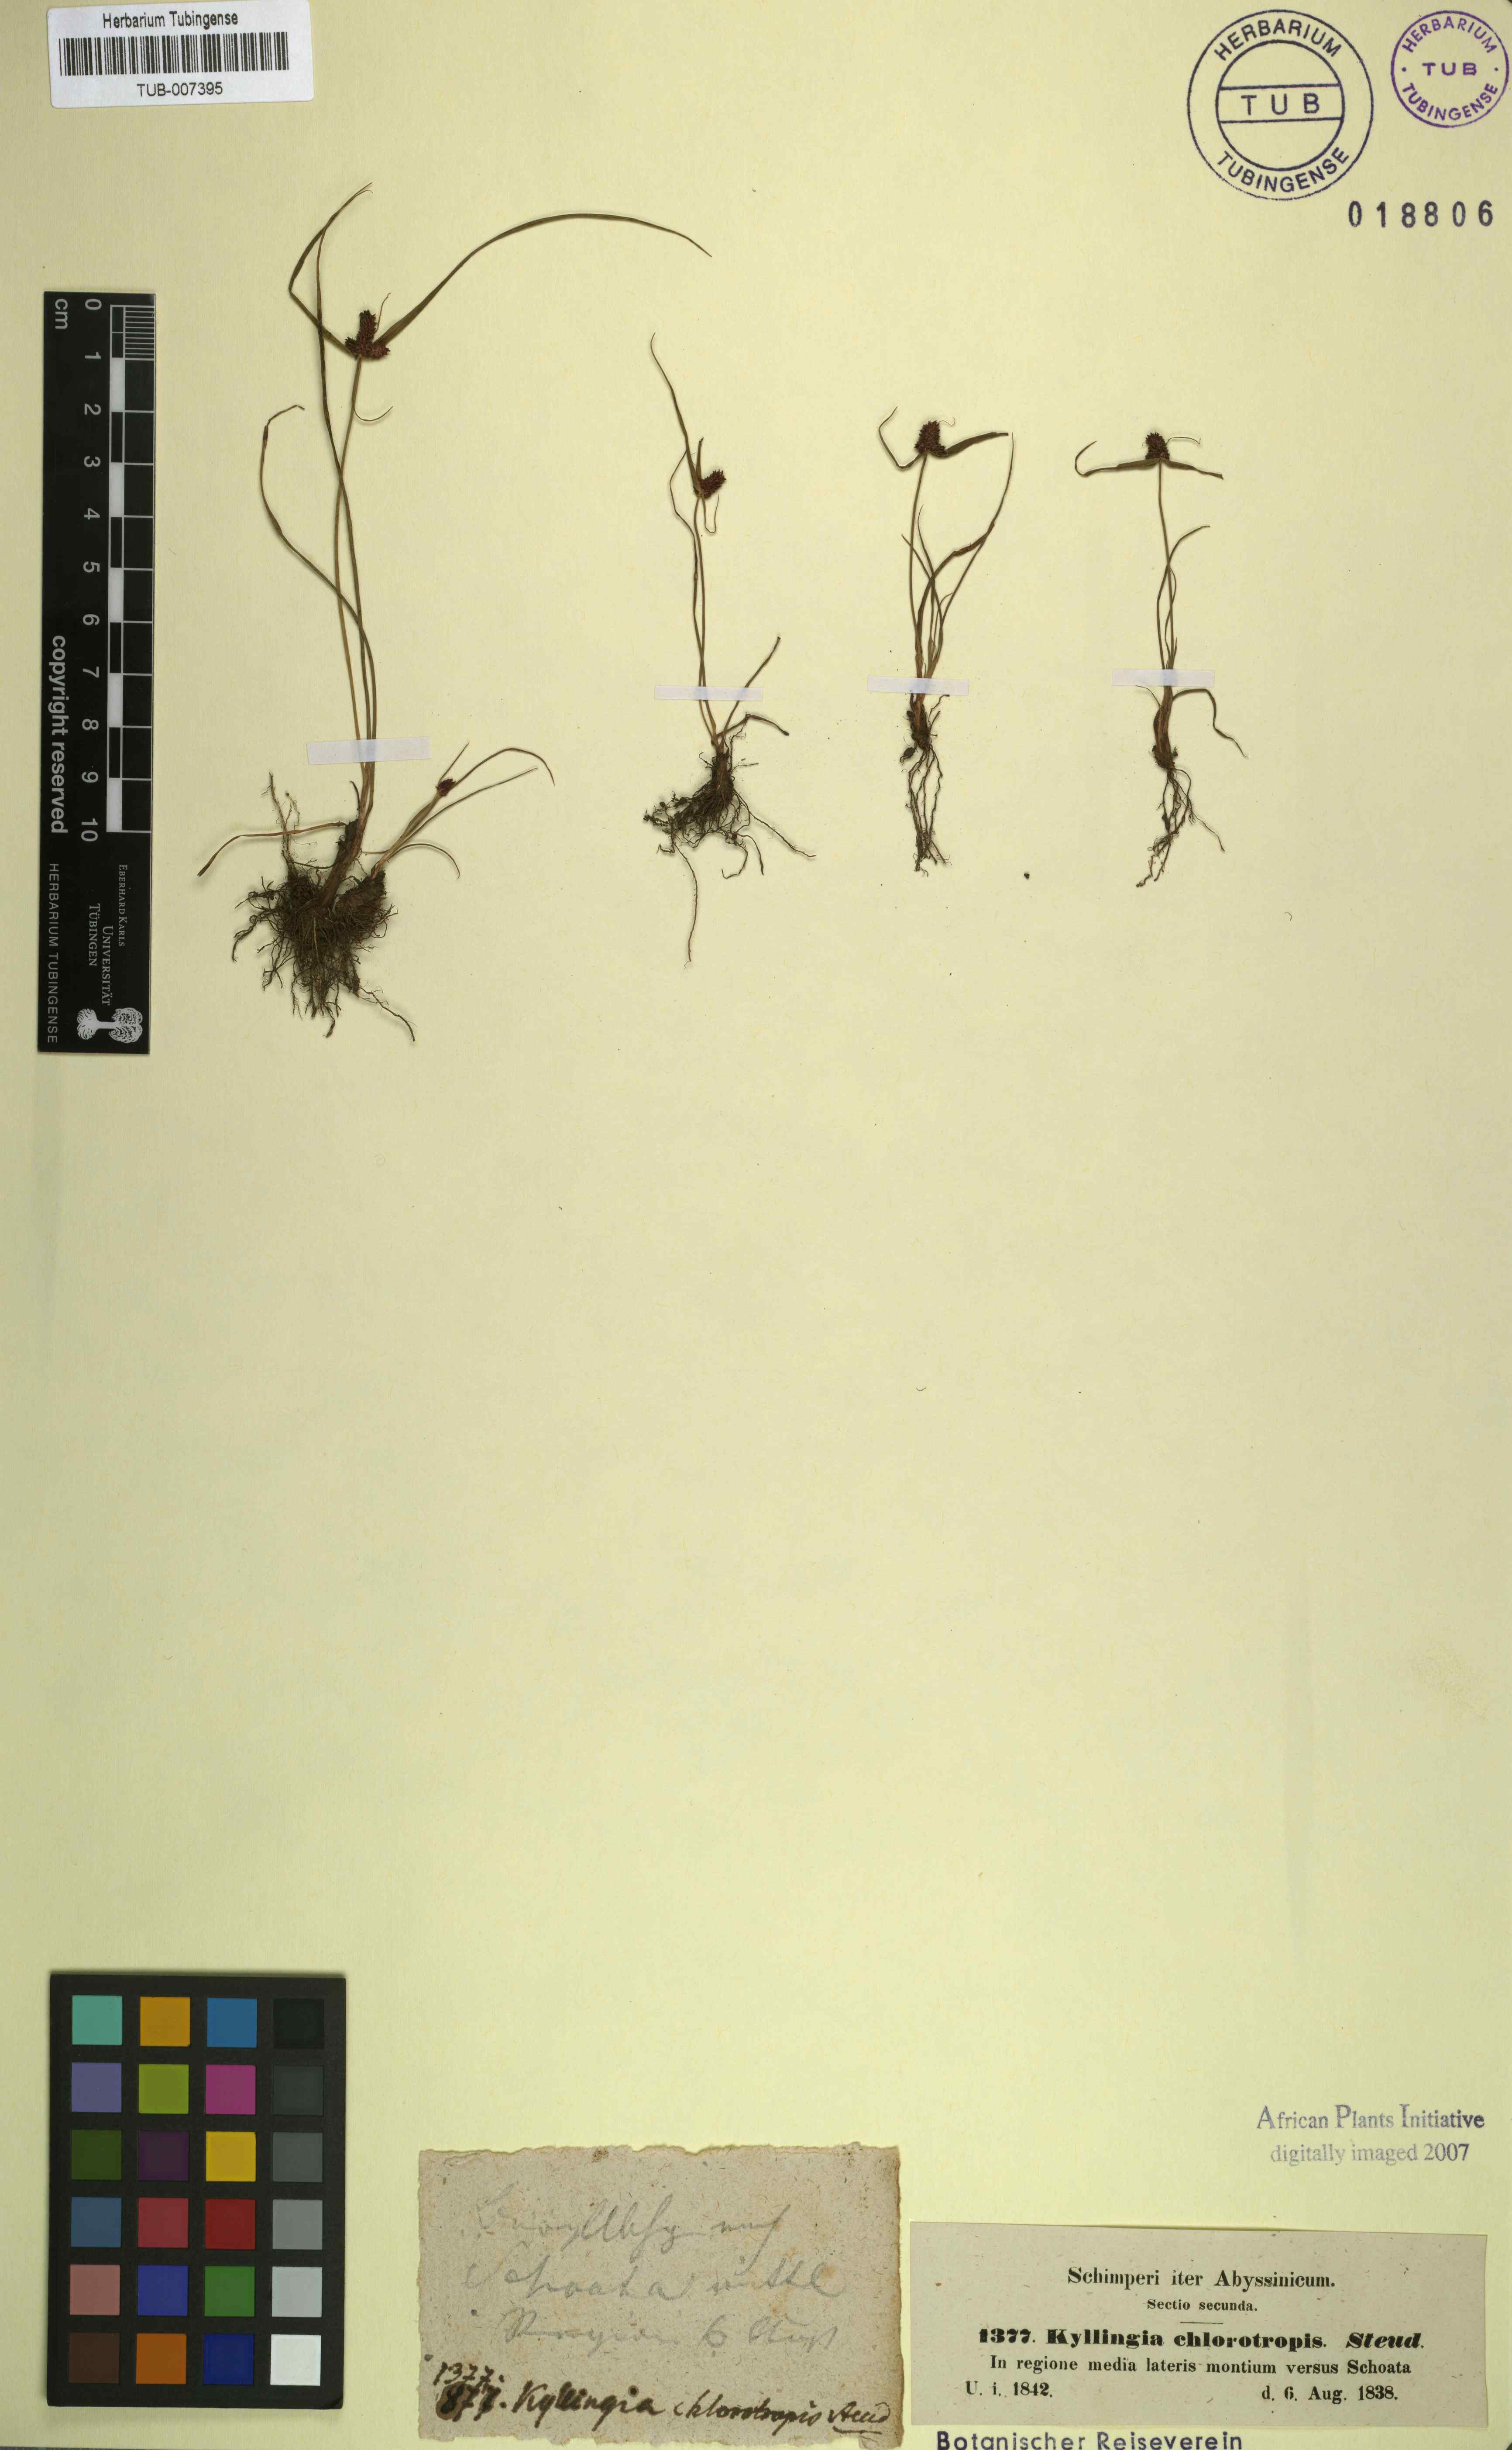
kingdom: Plantae
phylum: Tracheophyta
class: Liliopsida
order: Poales
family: Cyperaceae
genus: Cyperus
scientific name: Cyperus chlorotropis
